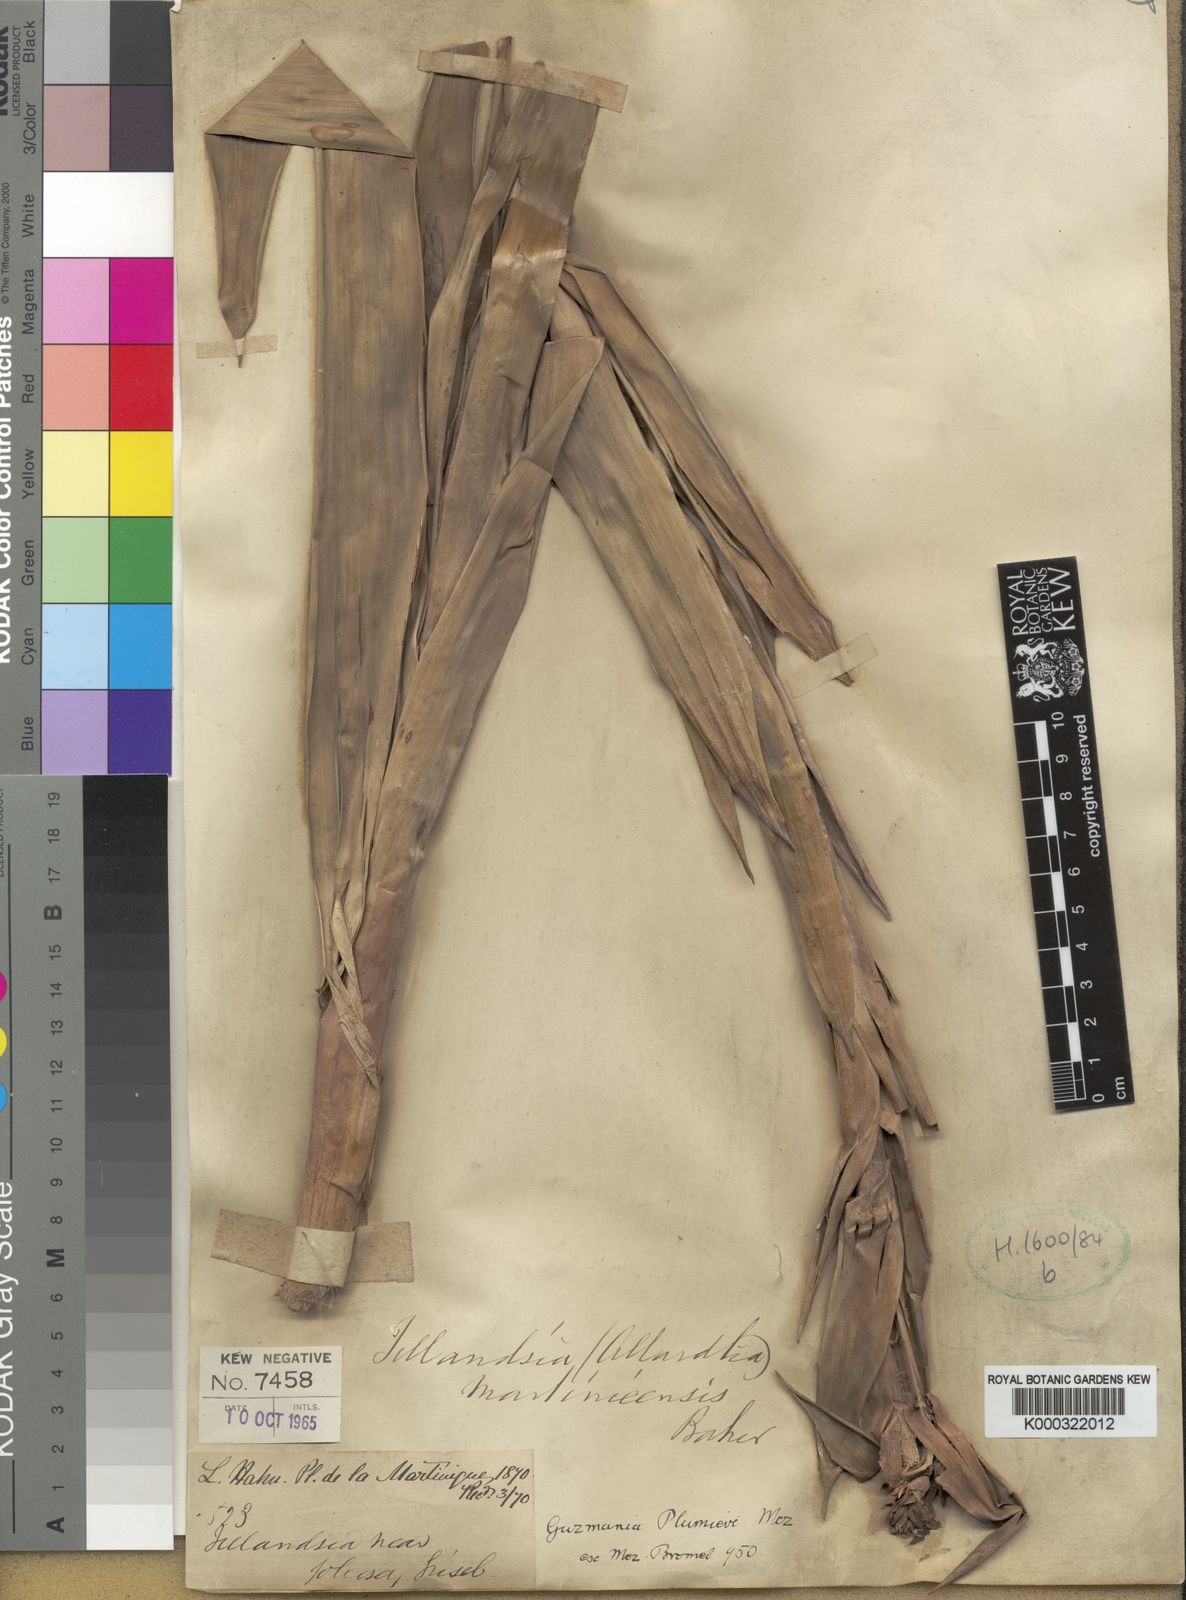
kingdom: Plantae
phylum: Tracheophyta
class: Liliopsida
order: Poales
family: Bromeliaceae
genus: Guzmania
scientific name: Guzmania plumieri
